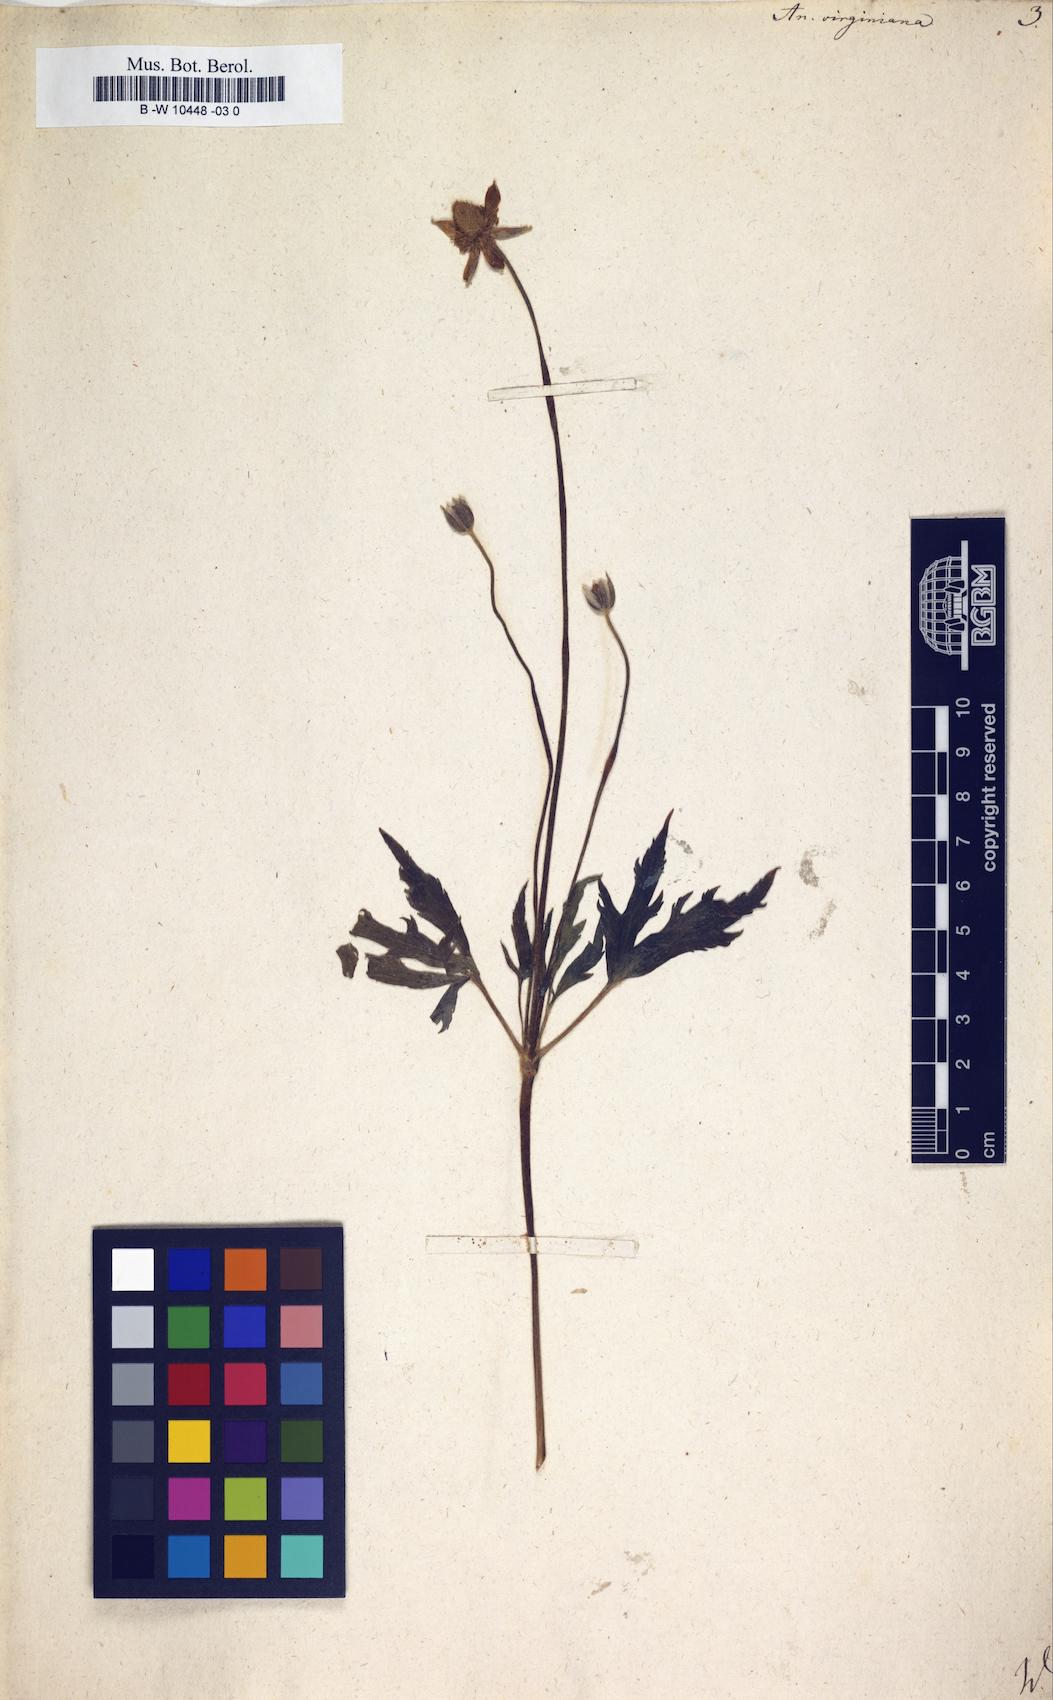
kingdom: Plantae
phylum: Tracheophyta
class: Magnoliopsida
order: Ranunculales
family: Ranunculaceae
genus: Anemone
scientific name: Anemone virginiana
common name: Tall anemone
